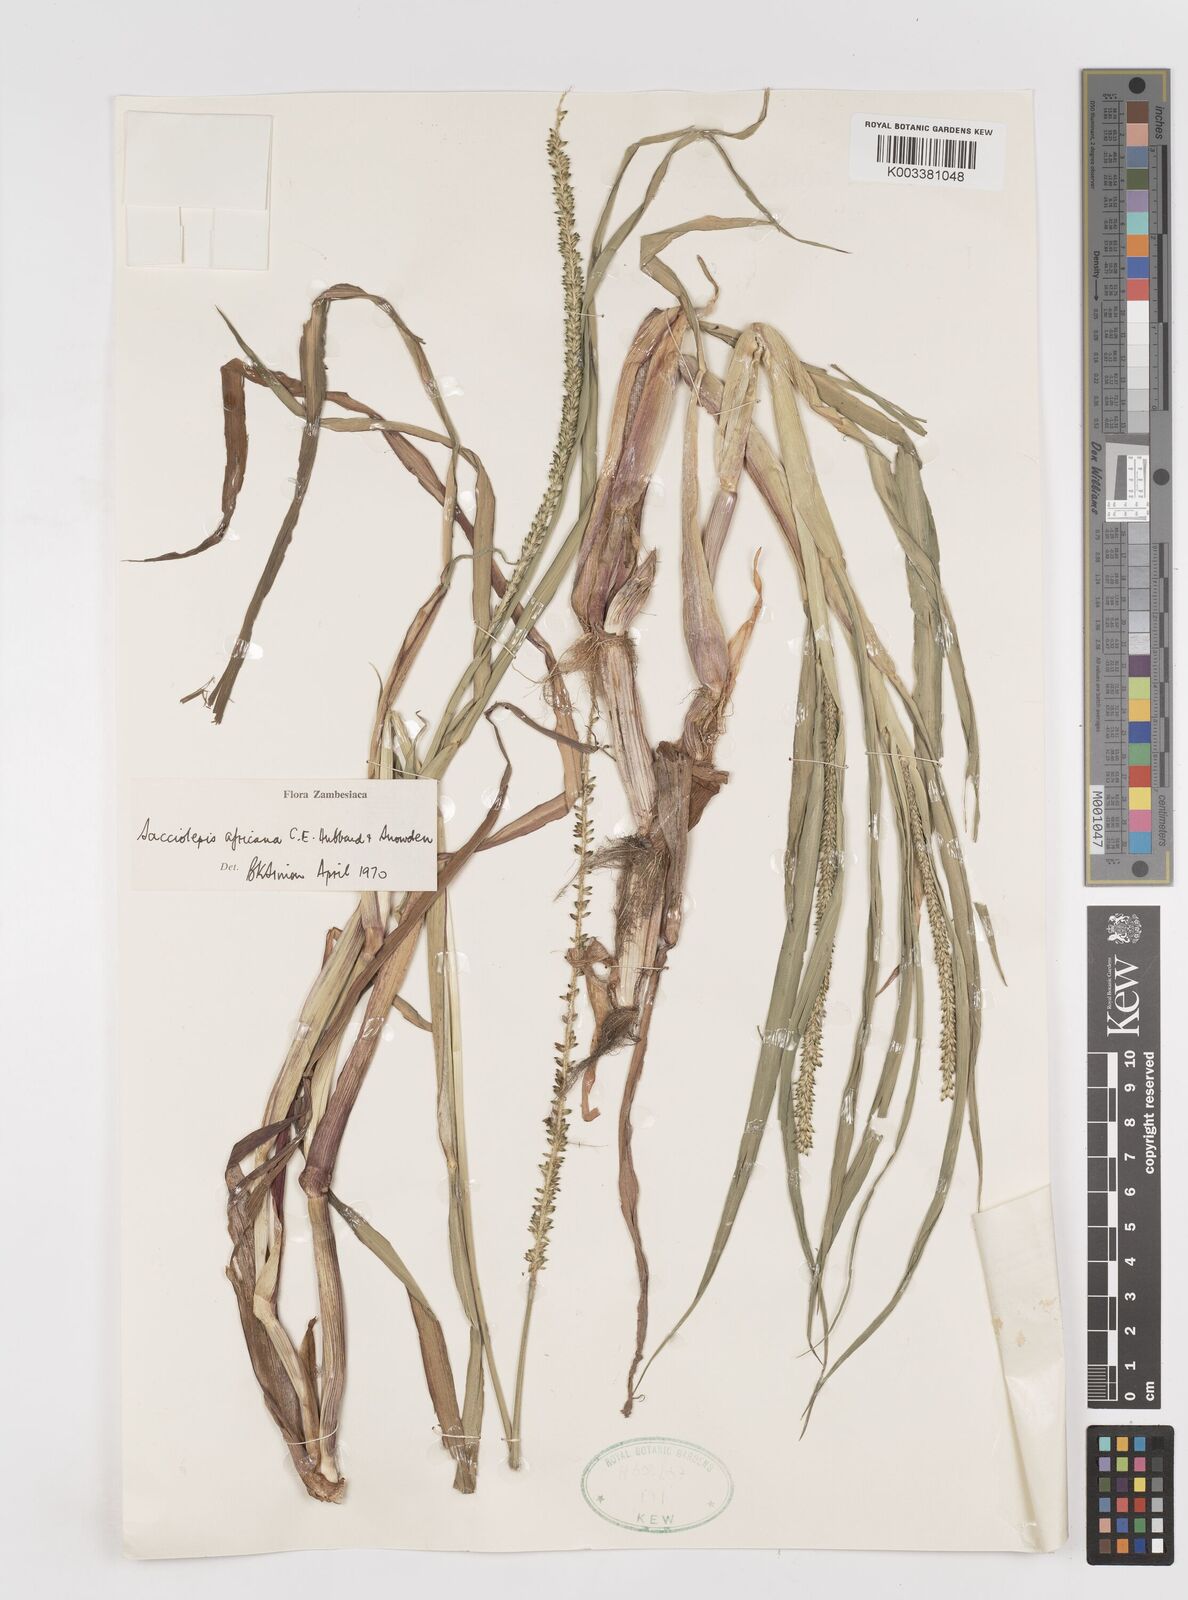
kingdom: Plantae
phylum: Tracheophyta
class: Liliopsida
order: Poales
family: Poaceae
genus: Sacciolepis
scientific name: Sacciolepis africana
